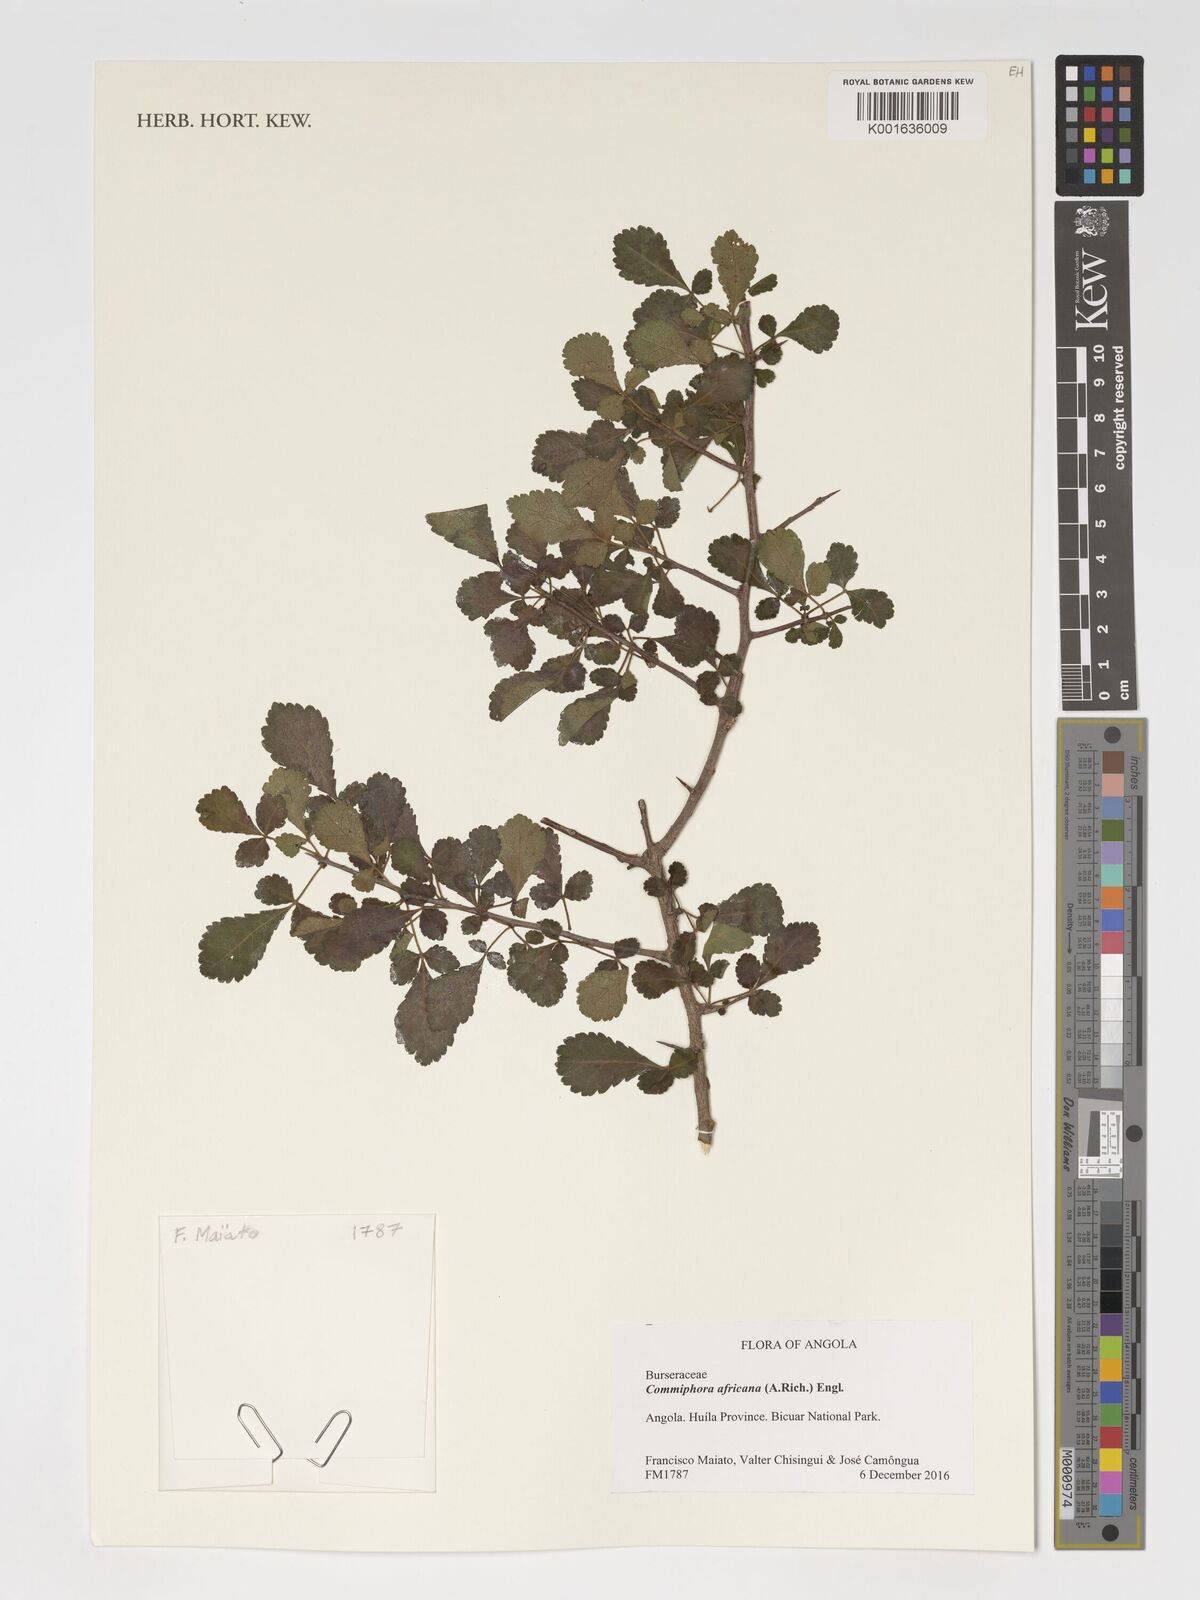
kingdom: Plantae
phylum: Tracheophyta
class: Magnoliopsida
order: Sapindales
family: Burseraceae
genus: Commiphora
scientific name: Commiphora africana
